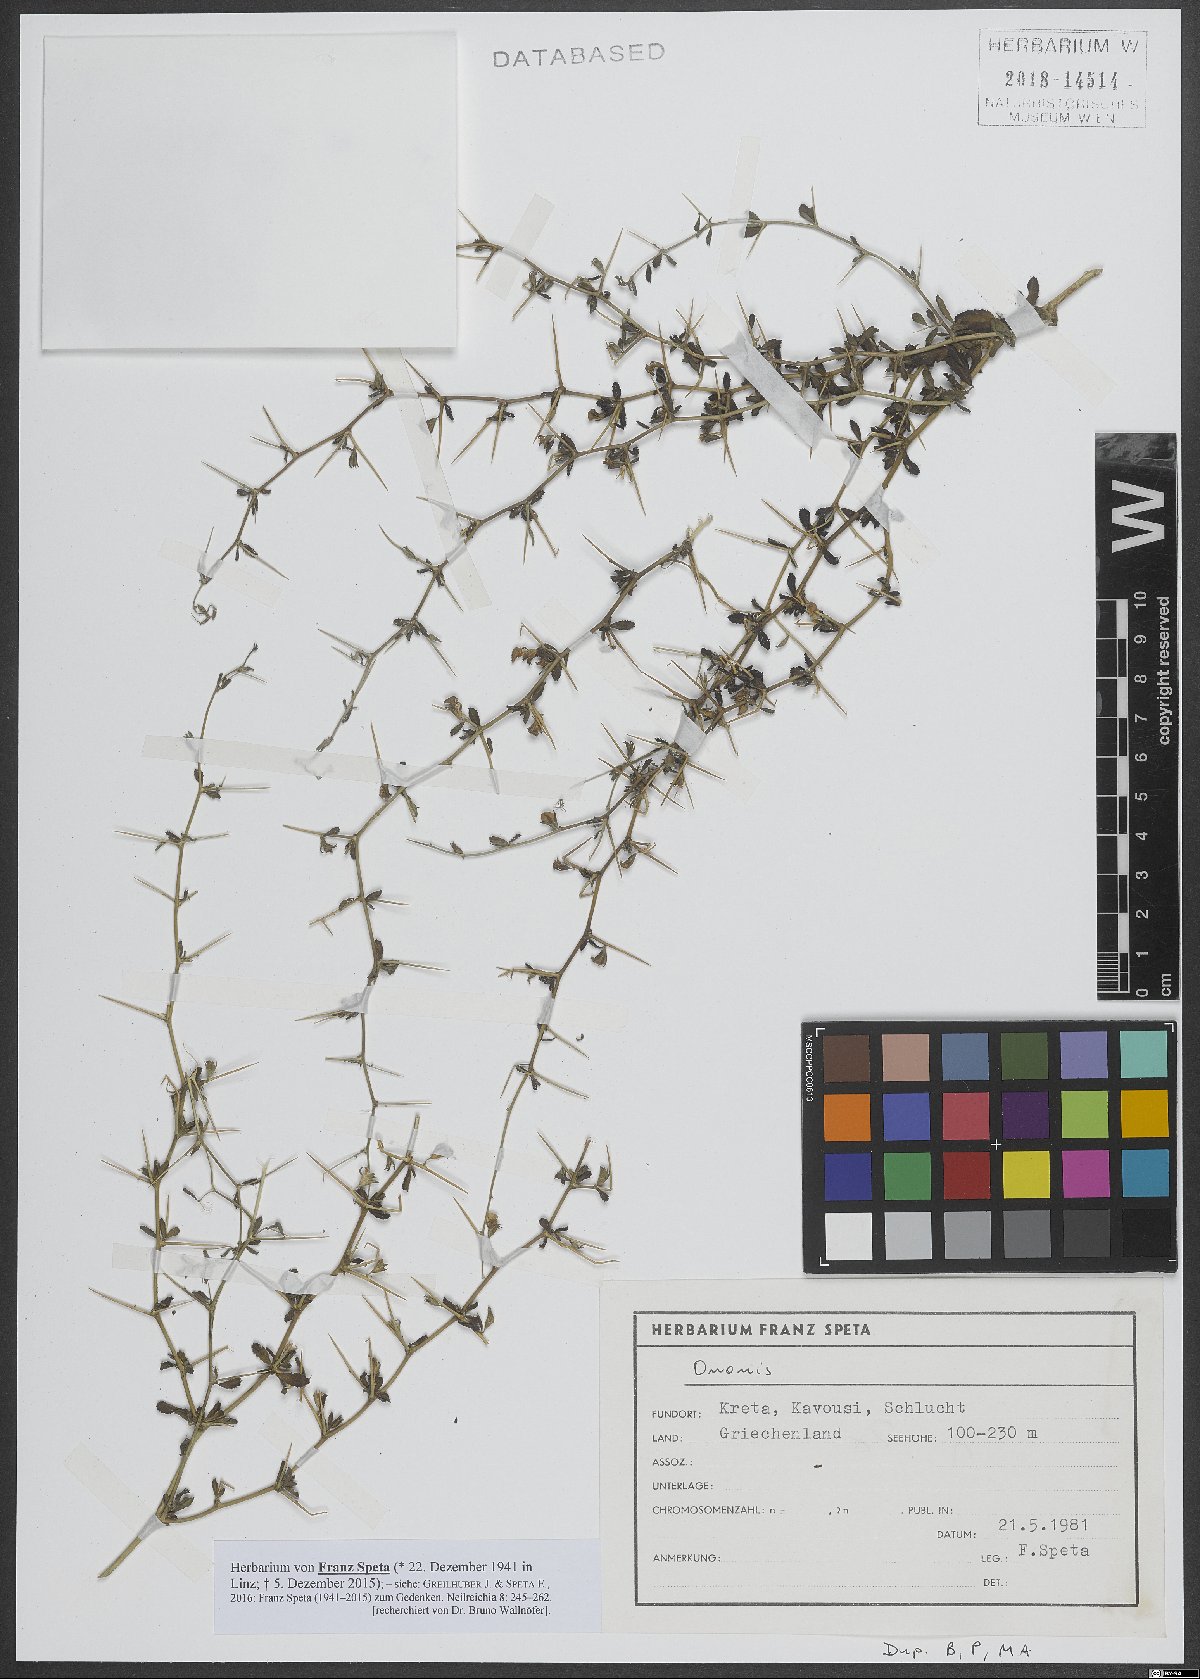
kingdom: Plantae
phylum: Tracheophyta
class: Magnoliopsida
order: Fabales
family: Fabaceae
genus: Ononis
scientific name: Ononis
